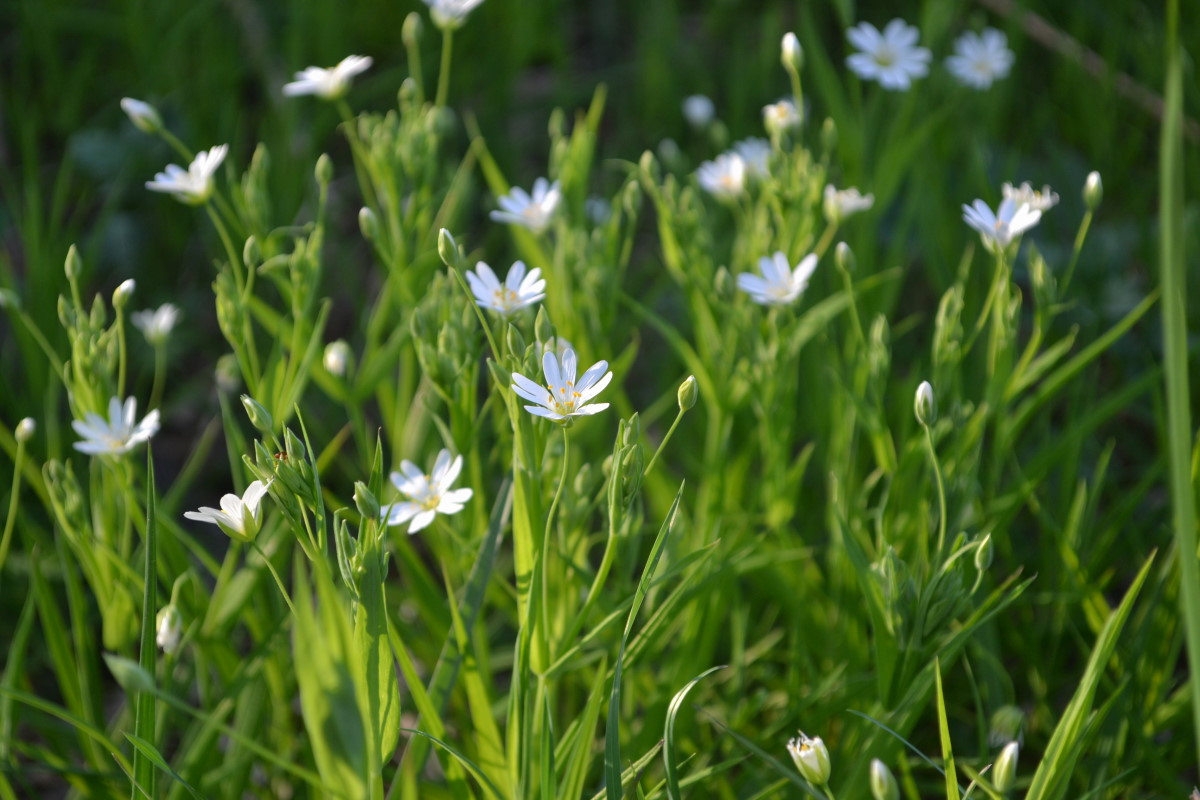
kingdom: Plantae
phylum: Tracheophyta
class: Magnoliopsida
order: Caryophyllales
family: Caryophyllaceae
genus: Stellaria
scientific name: Stellaria
